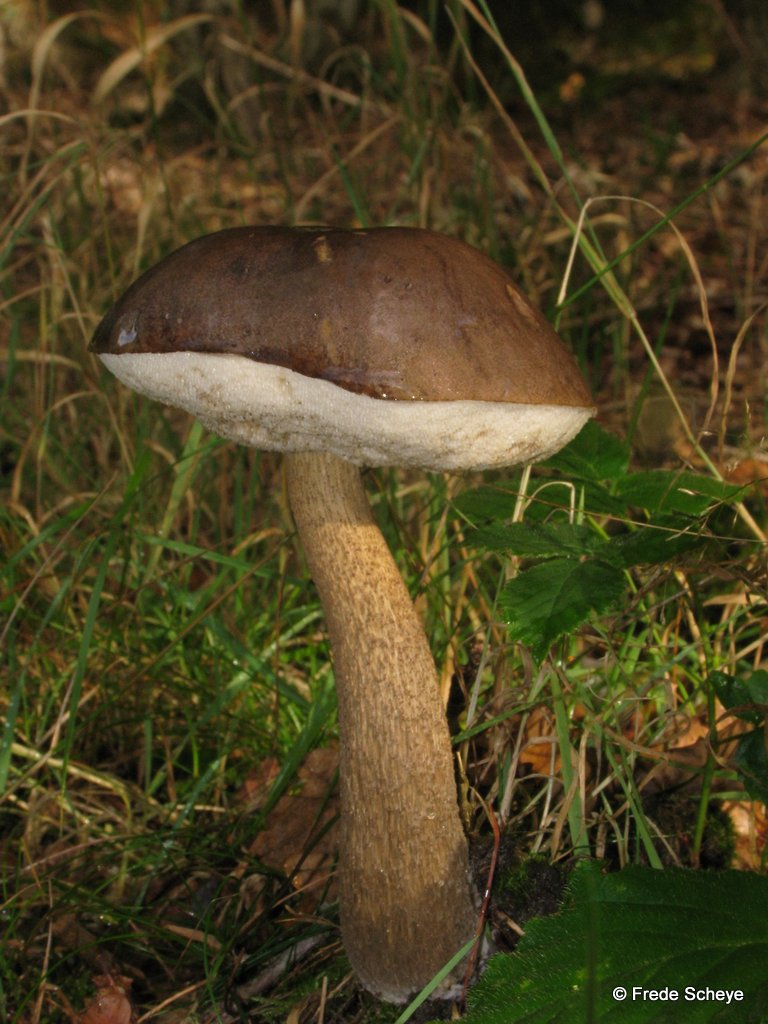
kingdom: Fungi
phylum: Basidiomycota
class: Agaricomycetes
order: Boletales
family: Boletaceae
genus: Leccinum
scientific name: Leccinum scabrum
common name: brun skælrørhat
